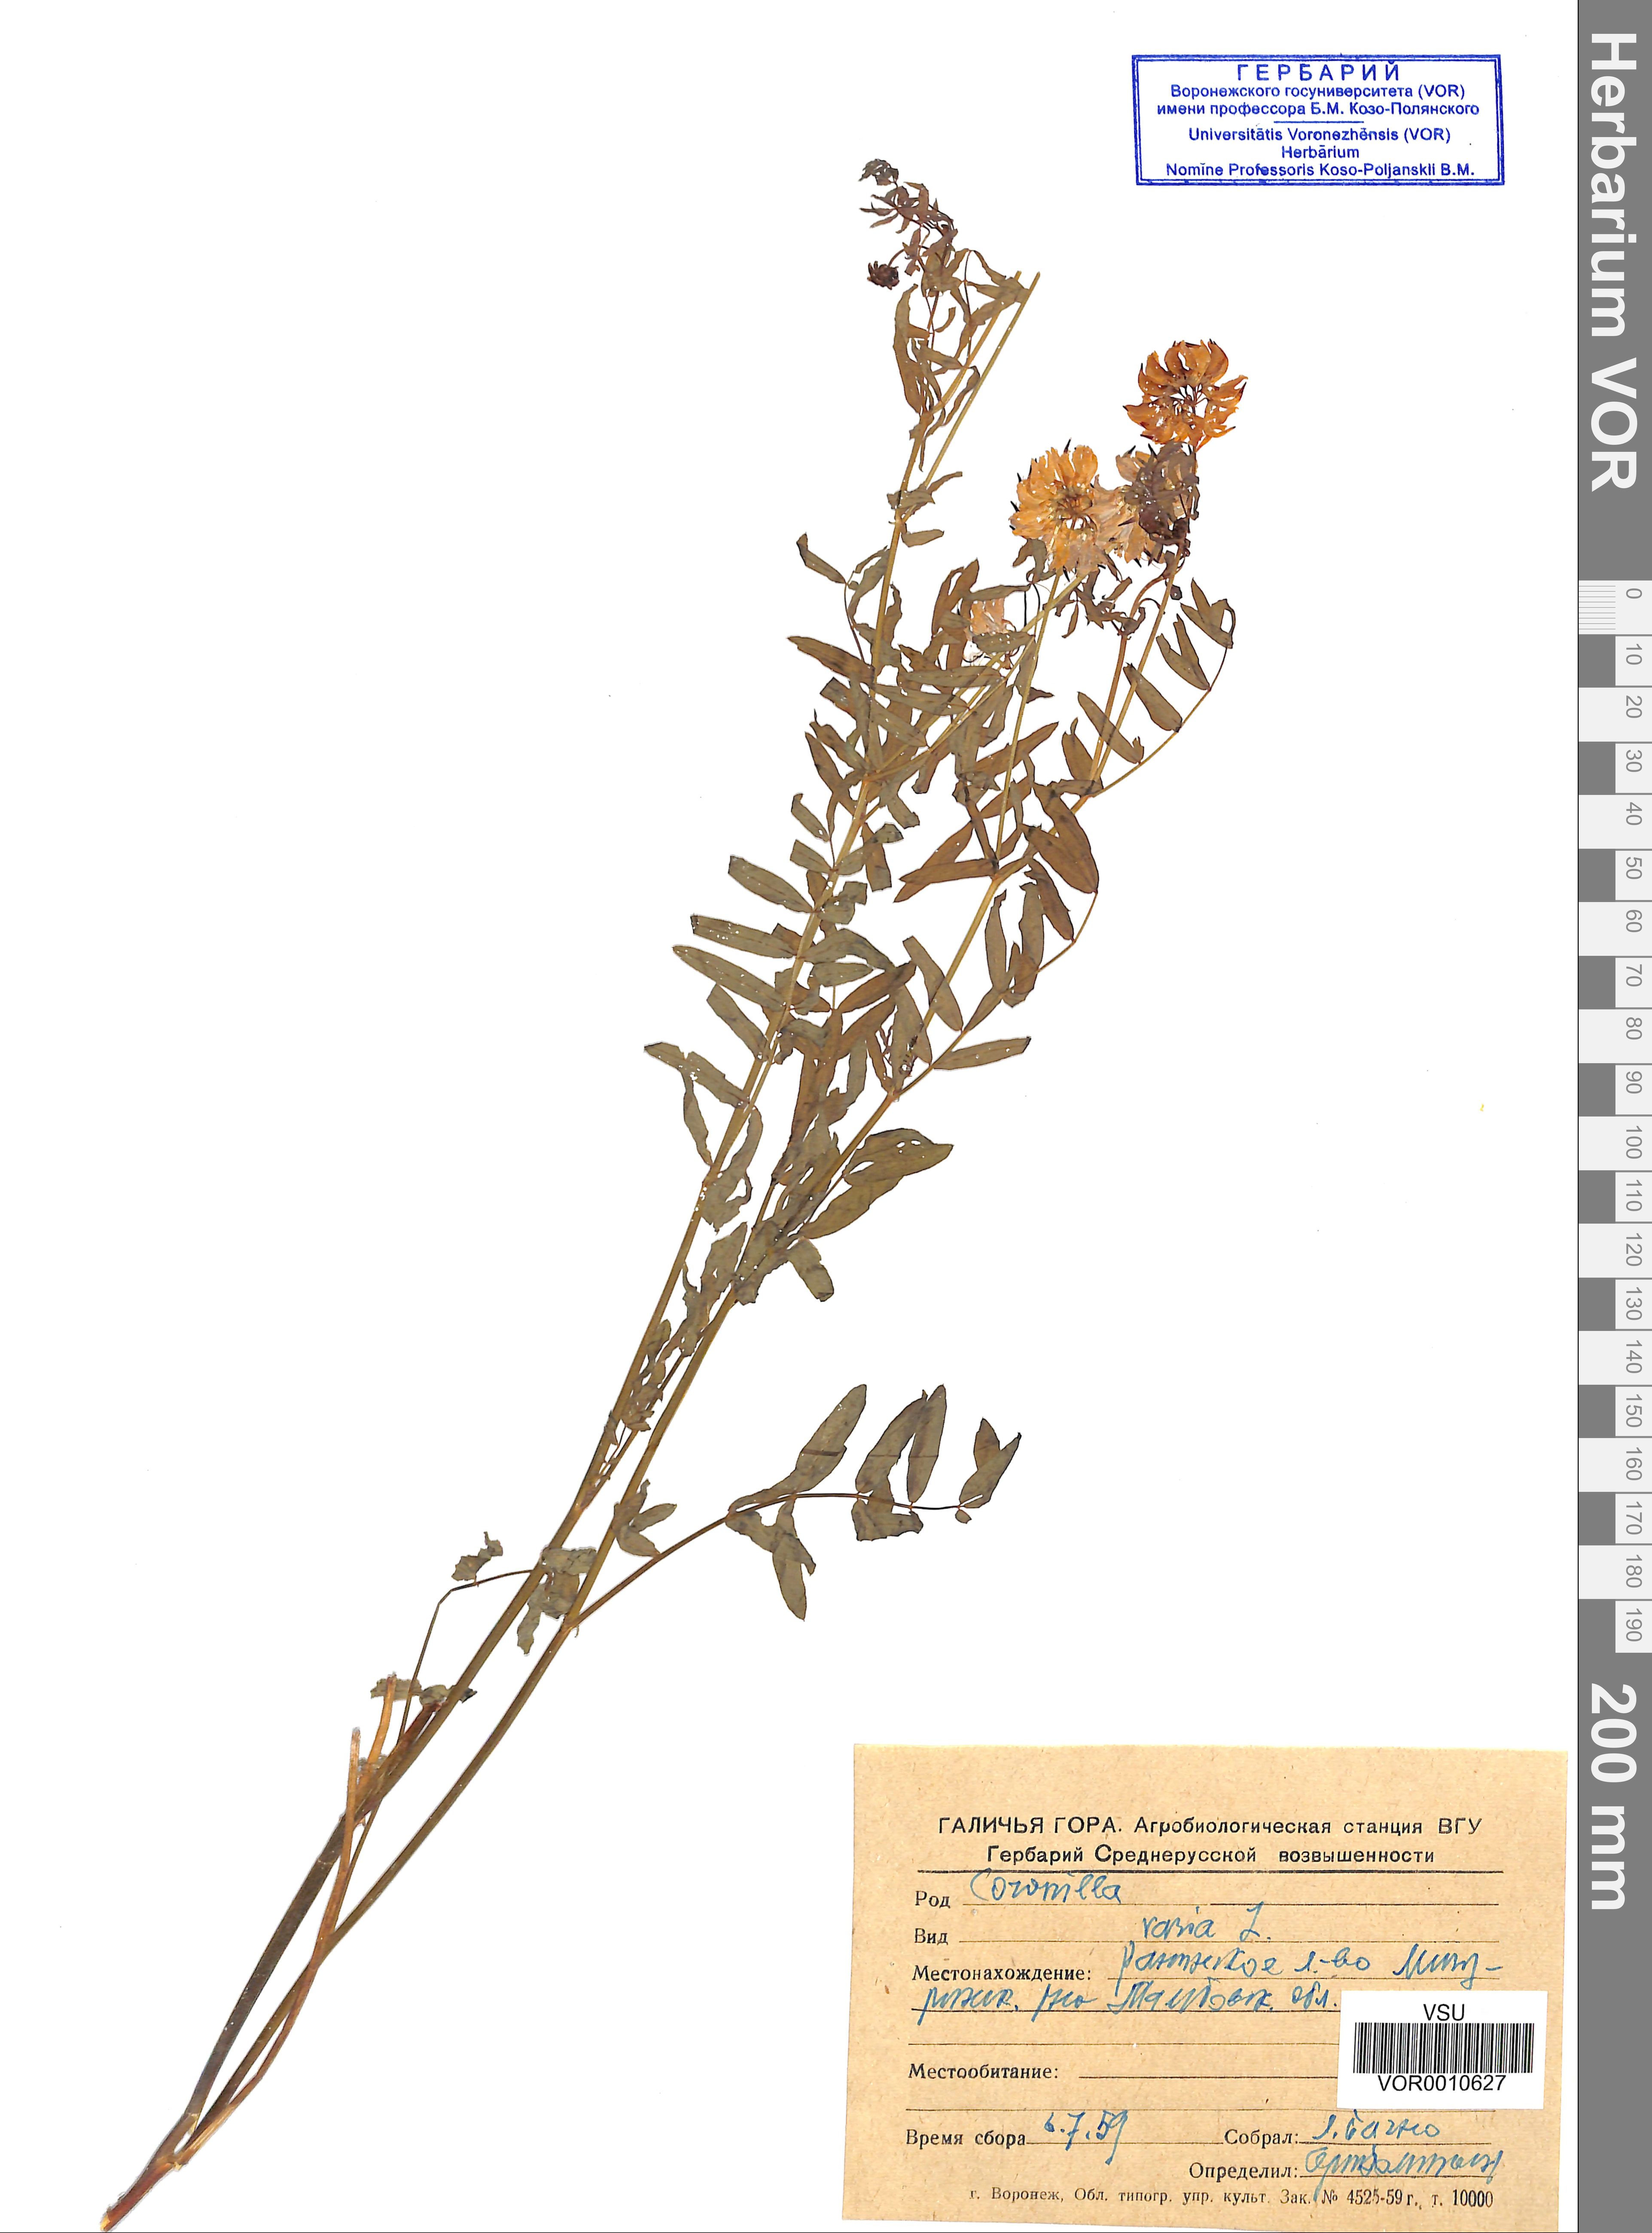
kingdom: Plantae
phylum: Tracheophyta
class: Magnoliopsida
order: Fabales
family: Fabaceae
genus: Coronilla
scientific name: Coronilla varia
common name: Crownvetch
